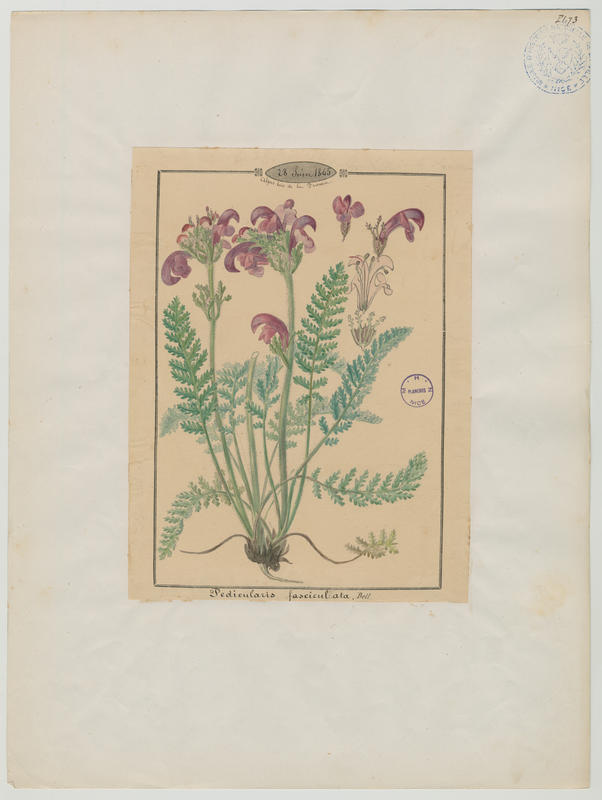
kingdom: Plantae
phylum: Tracheophyta
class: Magnoliopsida
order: Lamiales
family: Orobanchaceae
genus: Pedicularis
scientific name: Pedicularis gyroflexa
